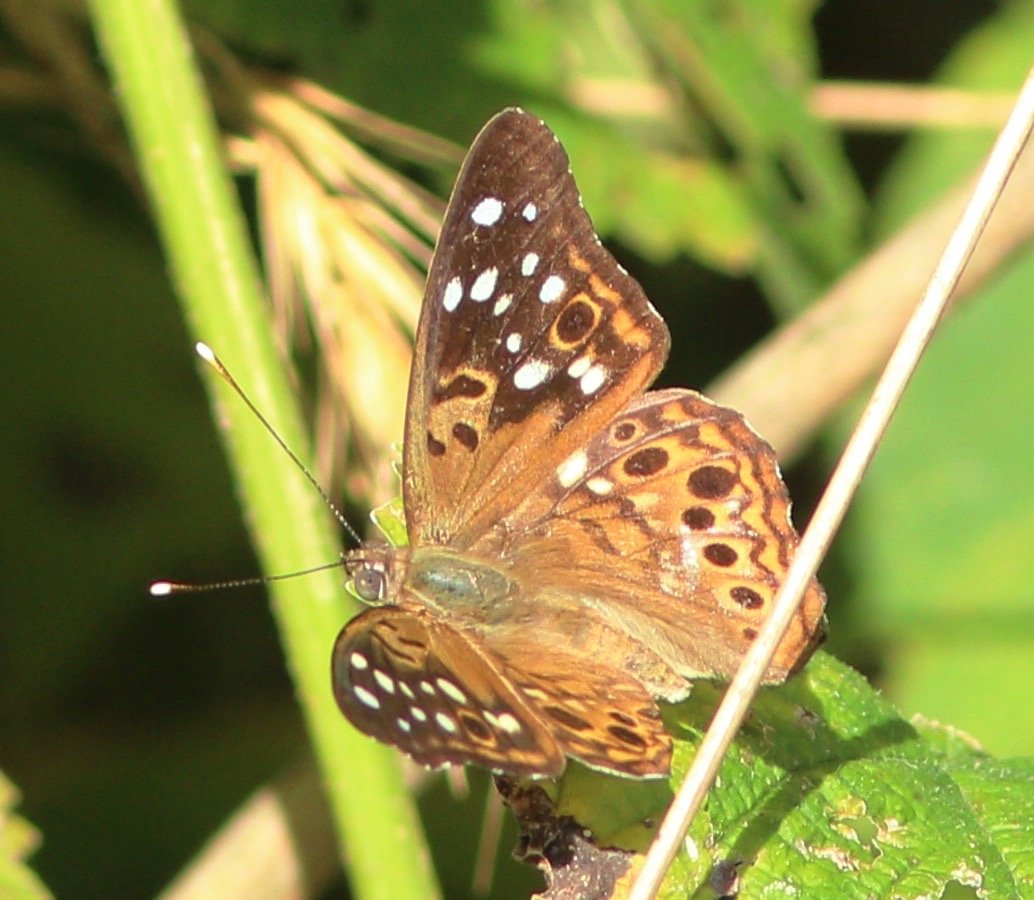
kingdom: Animalia
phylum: Arthropoda
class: Insecta
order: Lepidoptera
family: Nymphalidae
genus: Asterocampa
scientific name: Asterocampa celtis
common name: Hackberry Emperor
